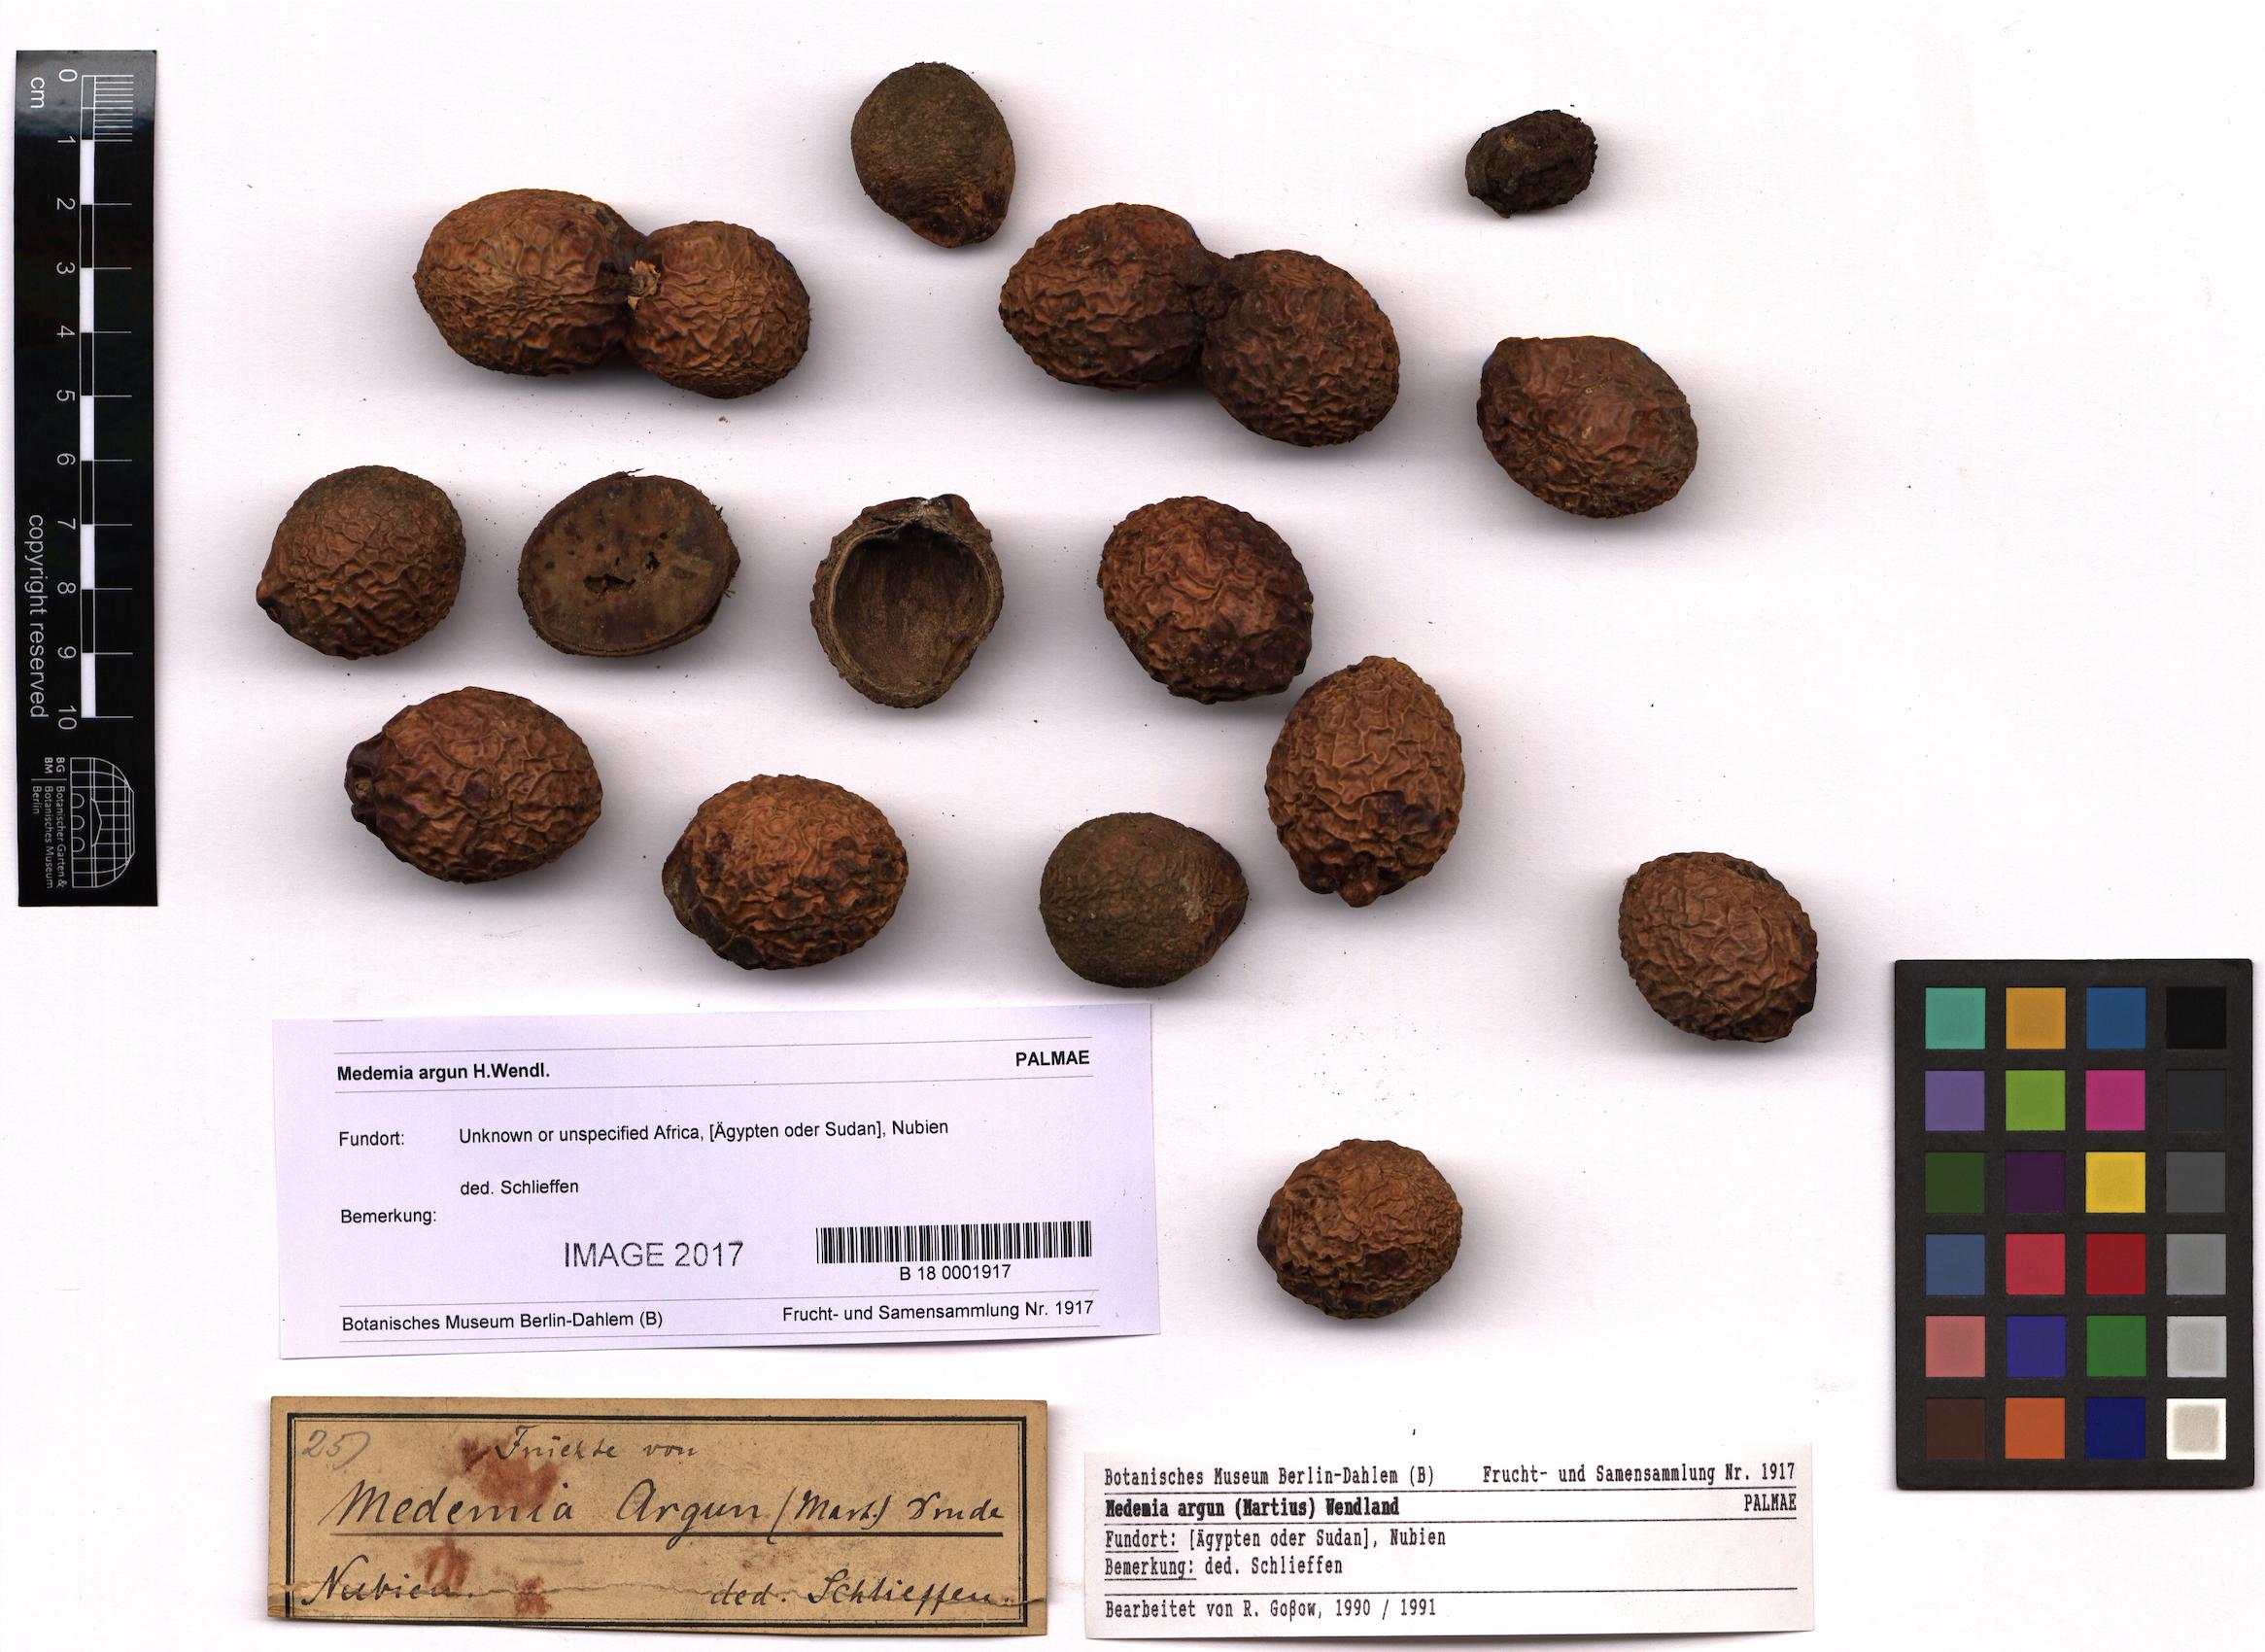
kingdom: Plantae
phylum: Tracheophyta
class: Liliopsida
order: Arecales
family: Arecaceae
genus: Medemia
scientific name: Medemia argun
